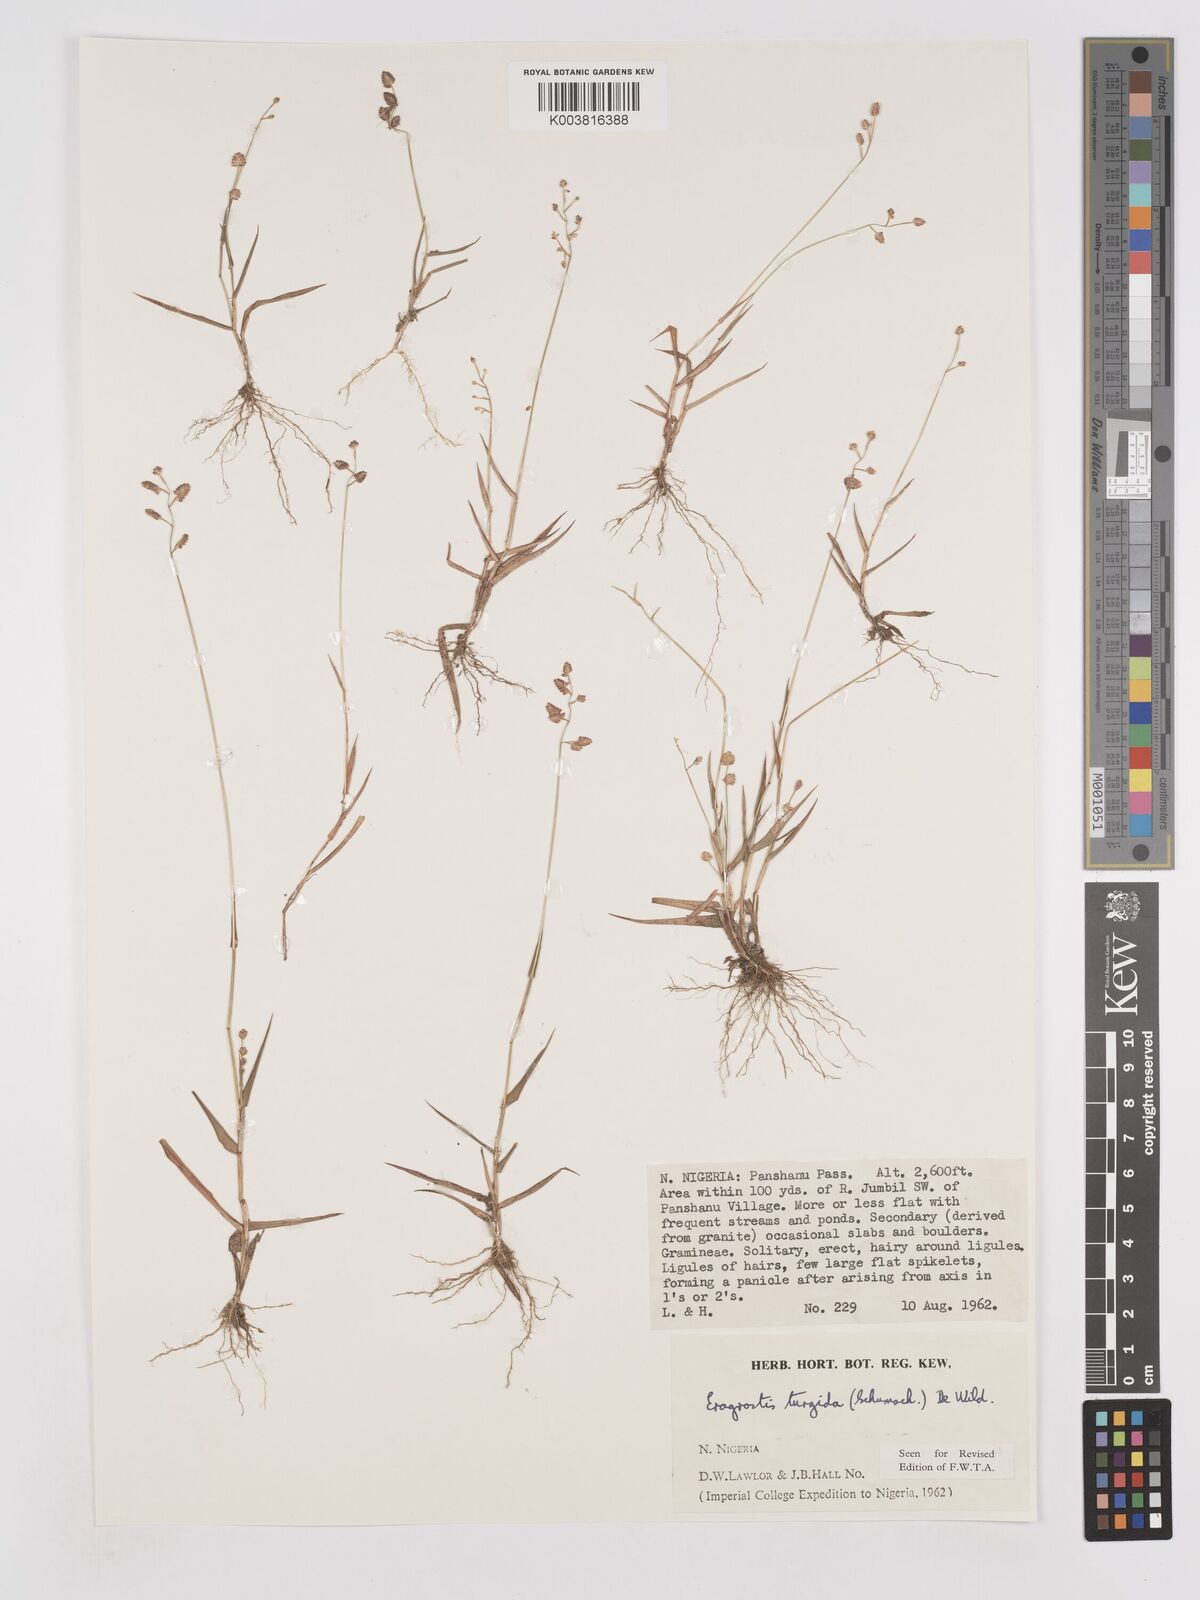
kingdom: Plantae
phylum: Tracheophyta
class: Liliopsida
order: Poales
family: Poaceae
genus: Eragrostis
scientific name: Eragrostis turgida
